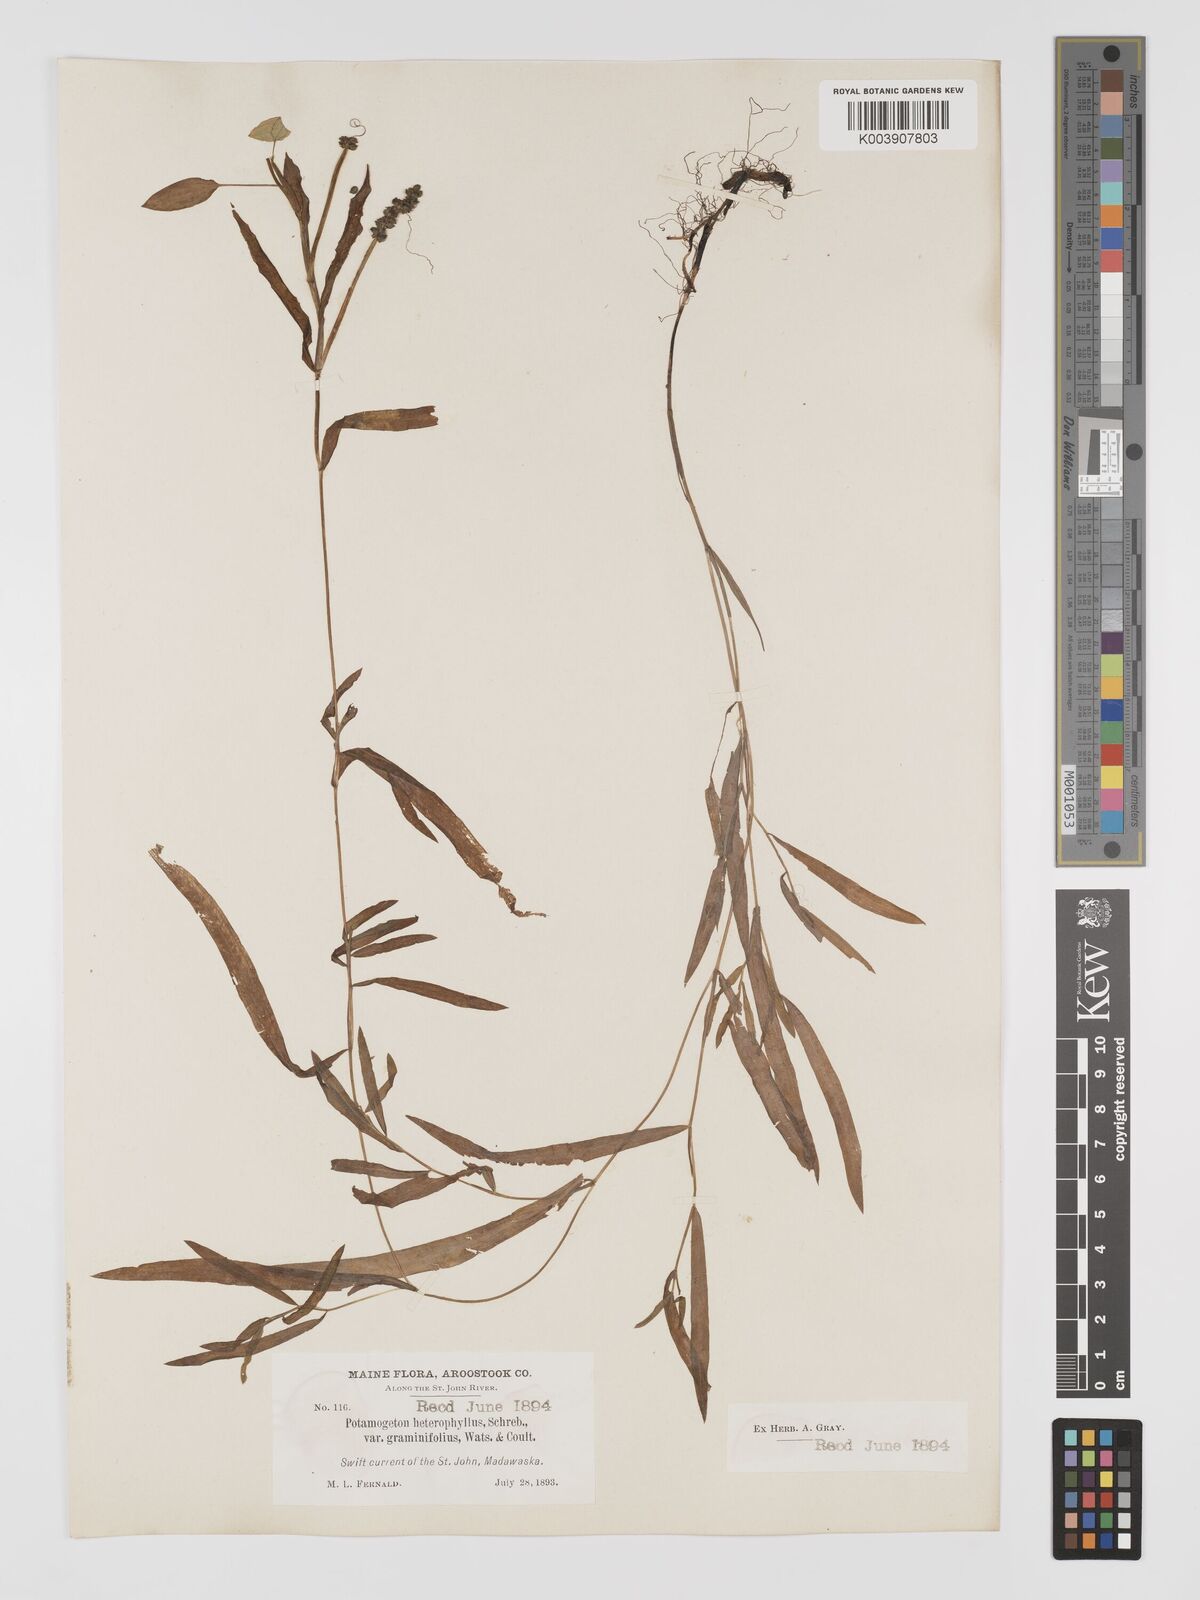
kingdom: Plantae
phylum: Tracheophyta
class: Liliopsida
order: Alismatales
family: Potamogetonaceae
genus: Potamogeton
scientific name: Potamogeton gramineus
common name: Various-leaved pondweed
